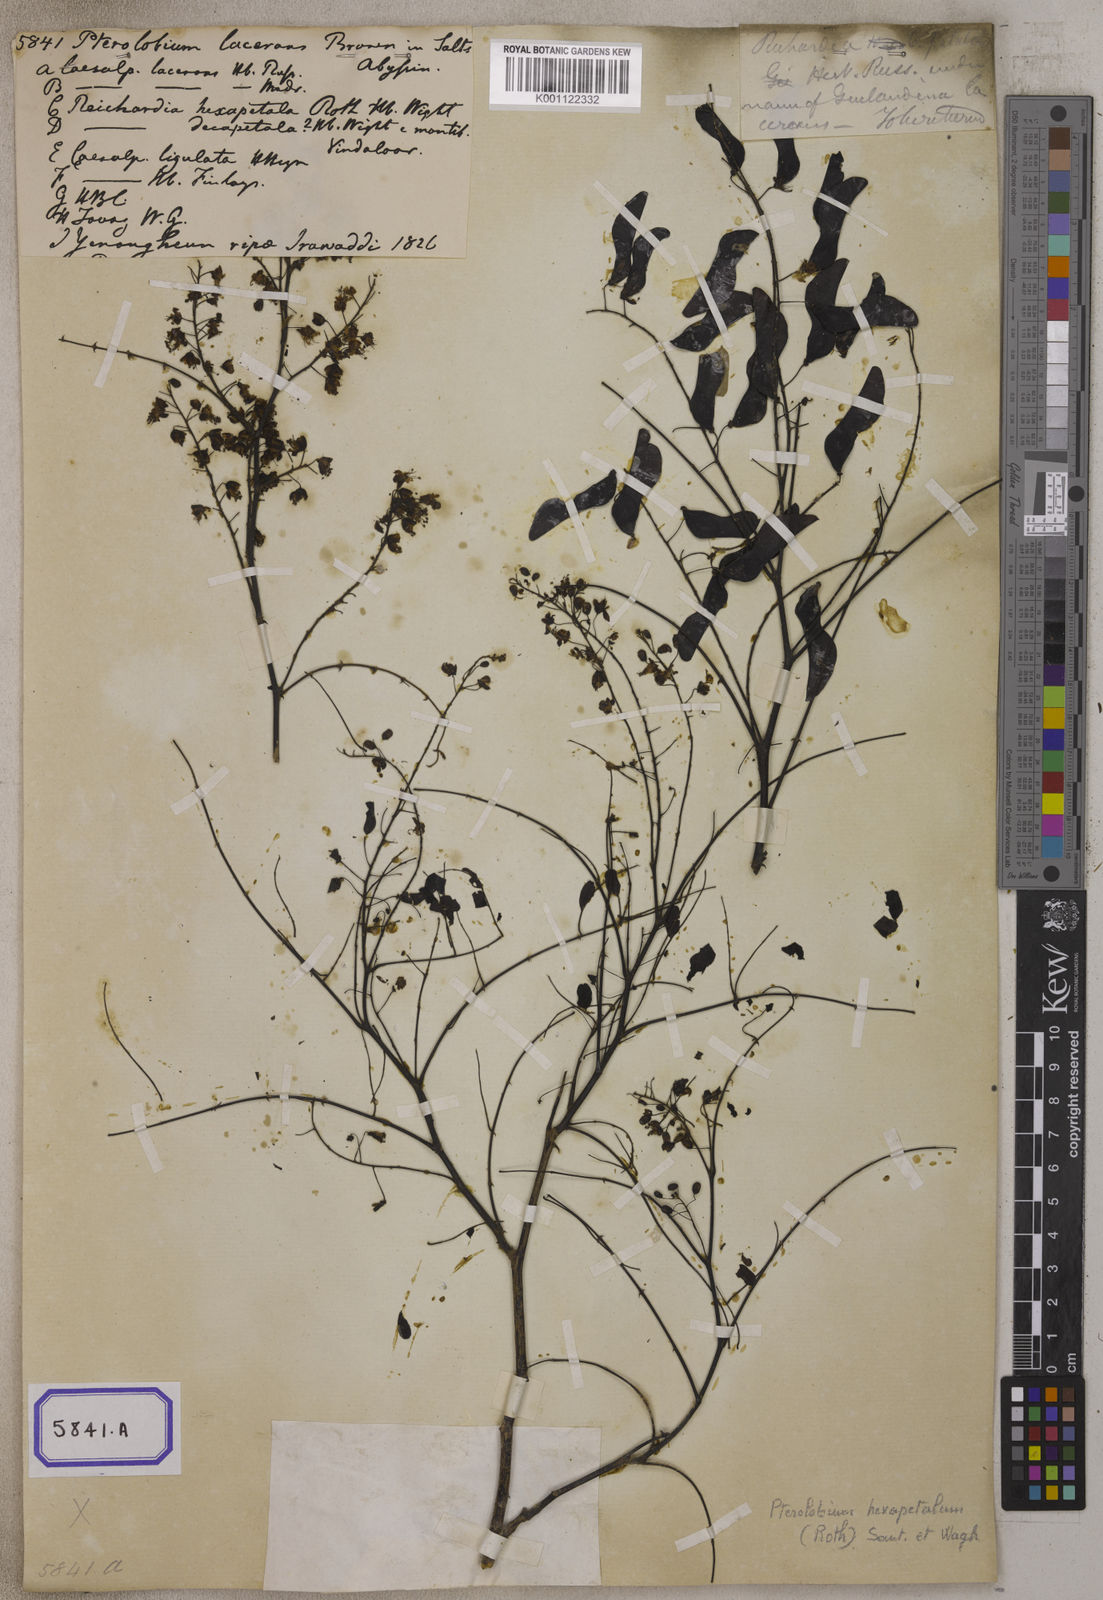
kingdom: Plantae
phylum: Tracheophyta
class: Magnoliopsida
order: Fabales
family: Fabaceae
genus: Pterolobium
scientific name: Pterolobium hexapetalum
